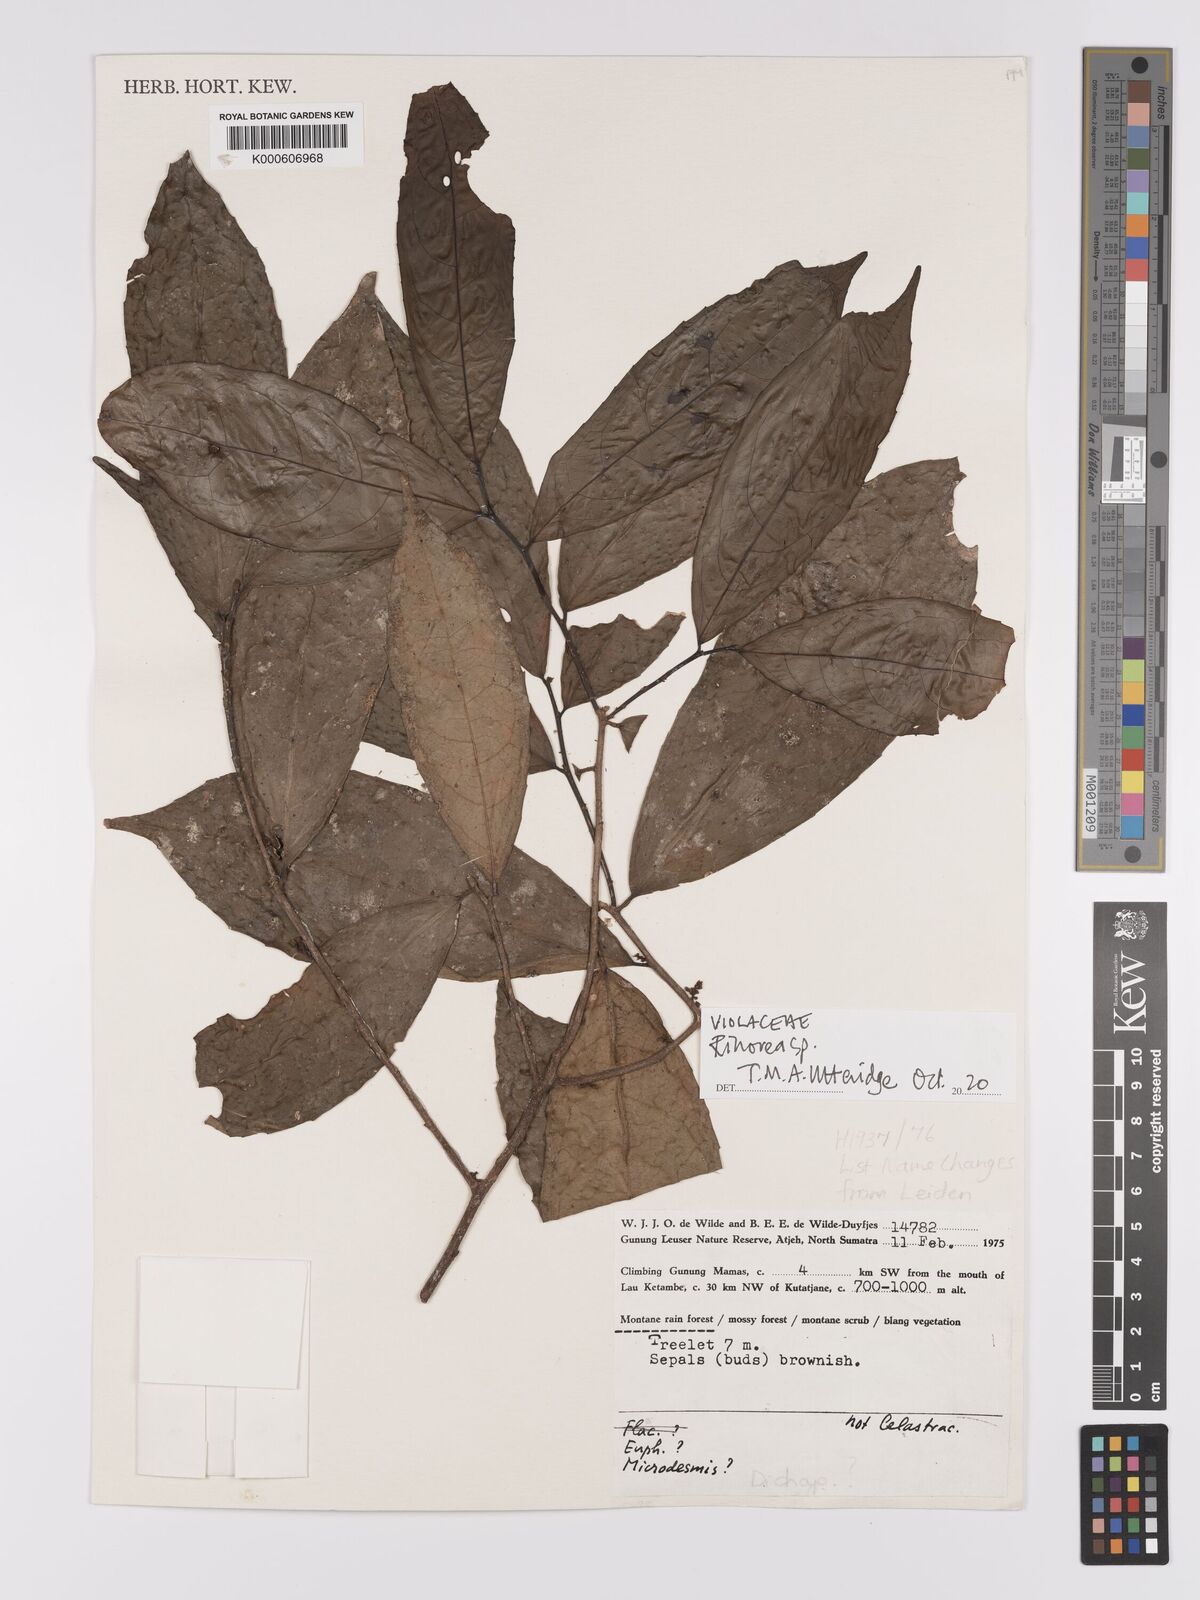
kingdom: Plantae
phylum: Tracheophyta
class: Magnoliopsida
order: Malpighiales
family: Violaceae
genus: Rinorea
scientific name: Rinorea
